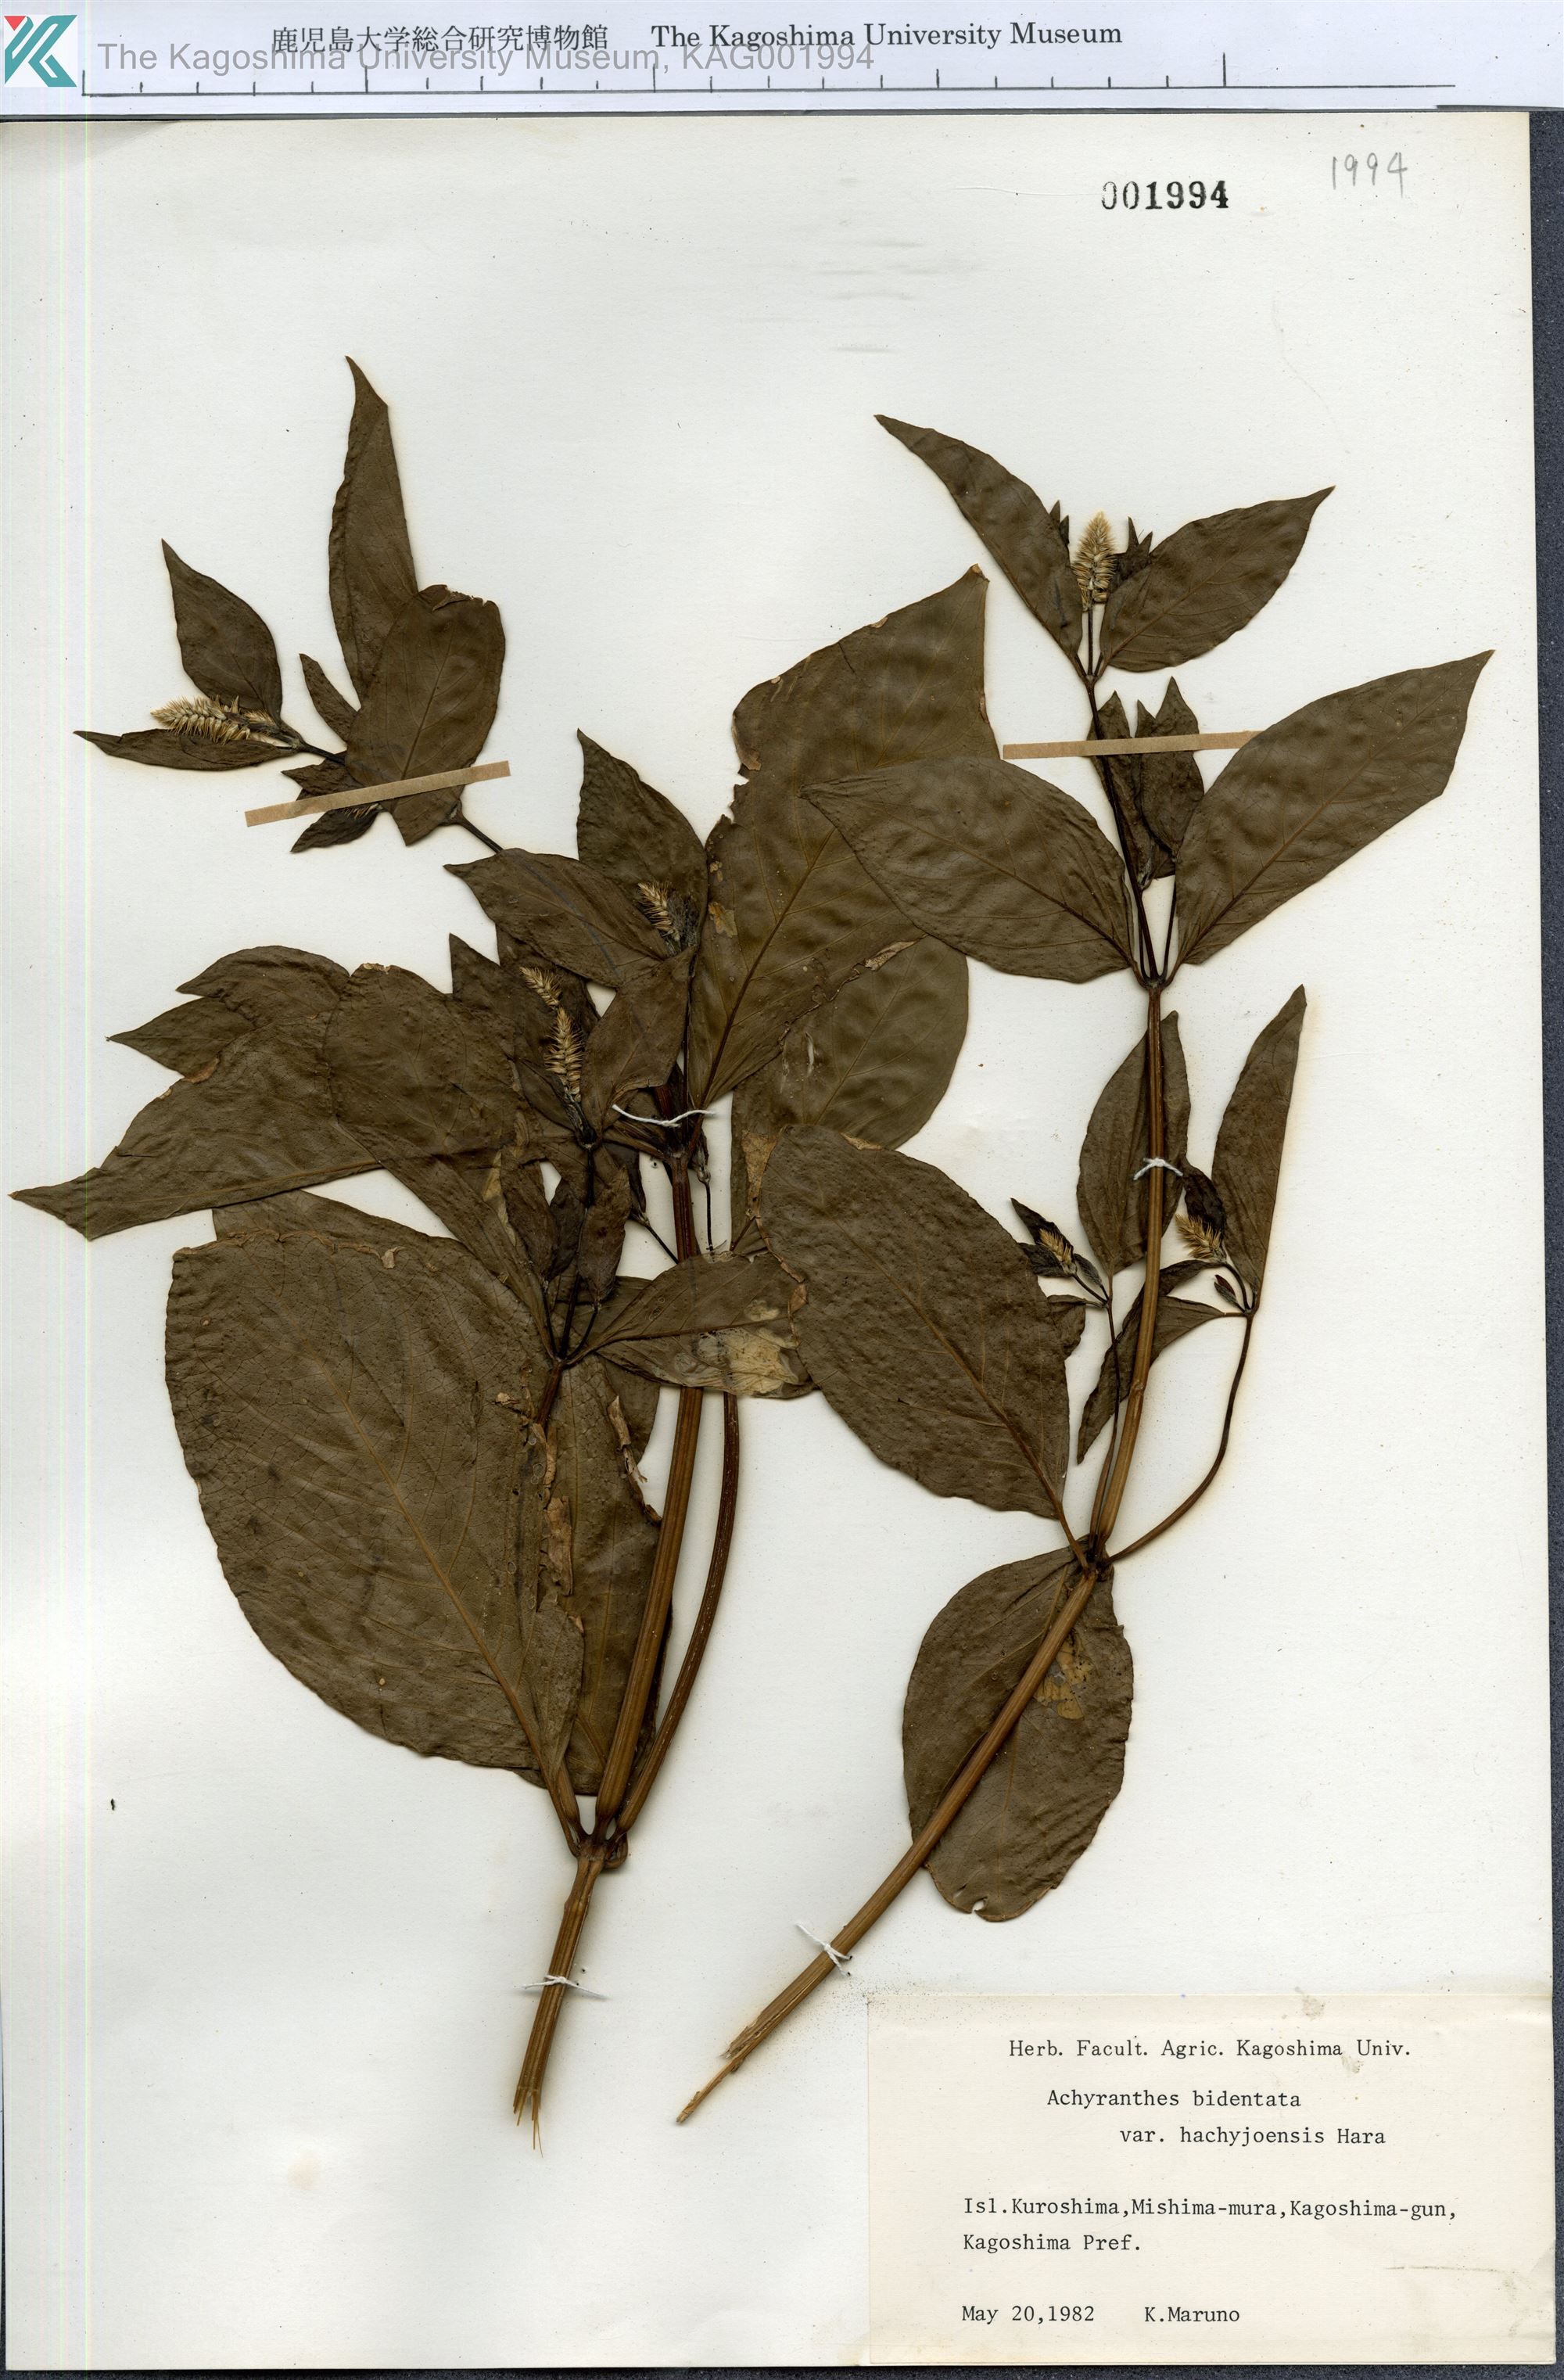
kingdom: Plantae
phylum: Tracheophyta
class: Magnoliopsida
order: Caryophyllales
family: Amaranthaceae
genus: Achyranthes
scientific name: Achyranthes bidentata
